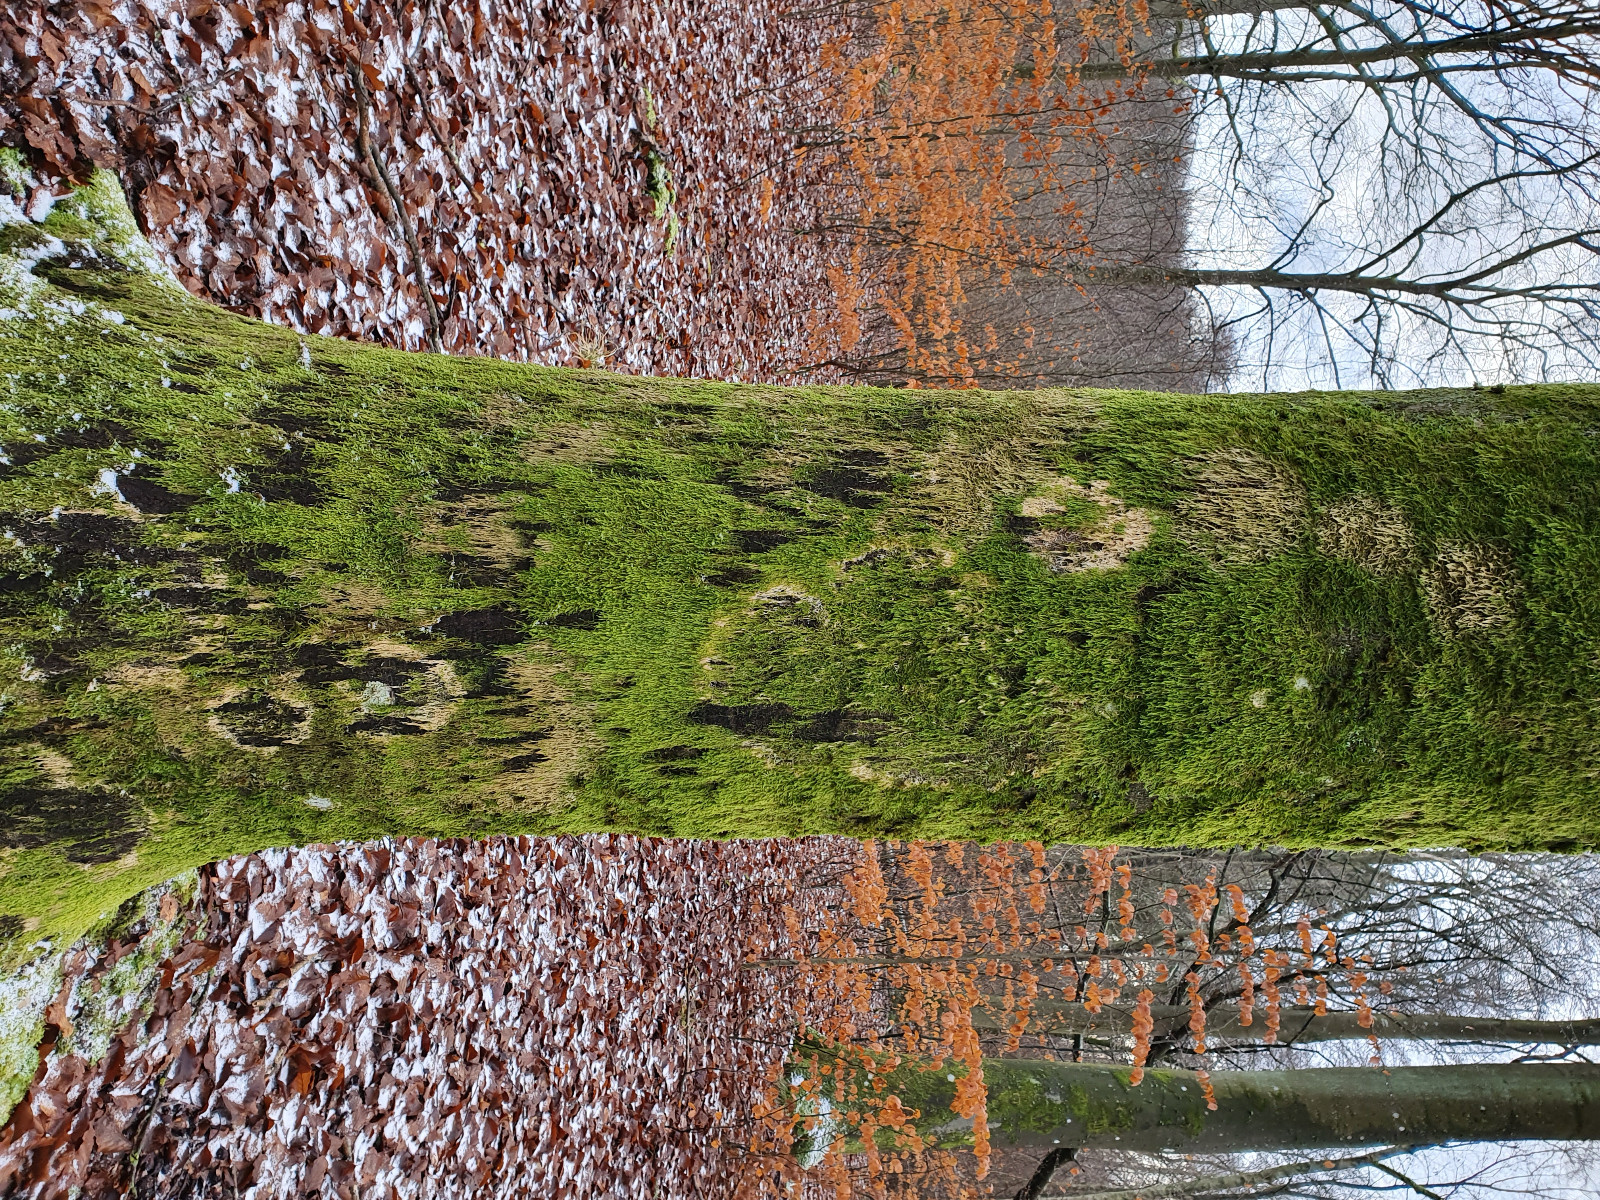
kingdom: Fungi
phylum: Basidiomycota
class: Agaricomycetes
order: Agaricales
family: Chromocyphellaceae
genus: Chromocyphella
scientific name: Chromocyphella muscicola
